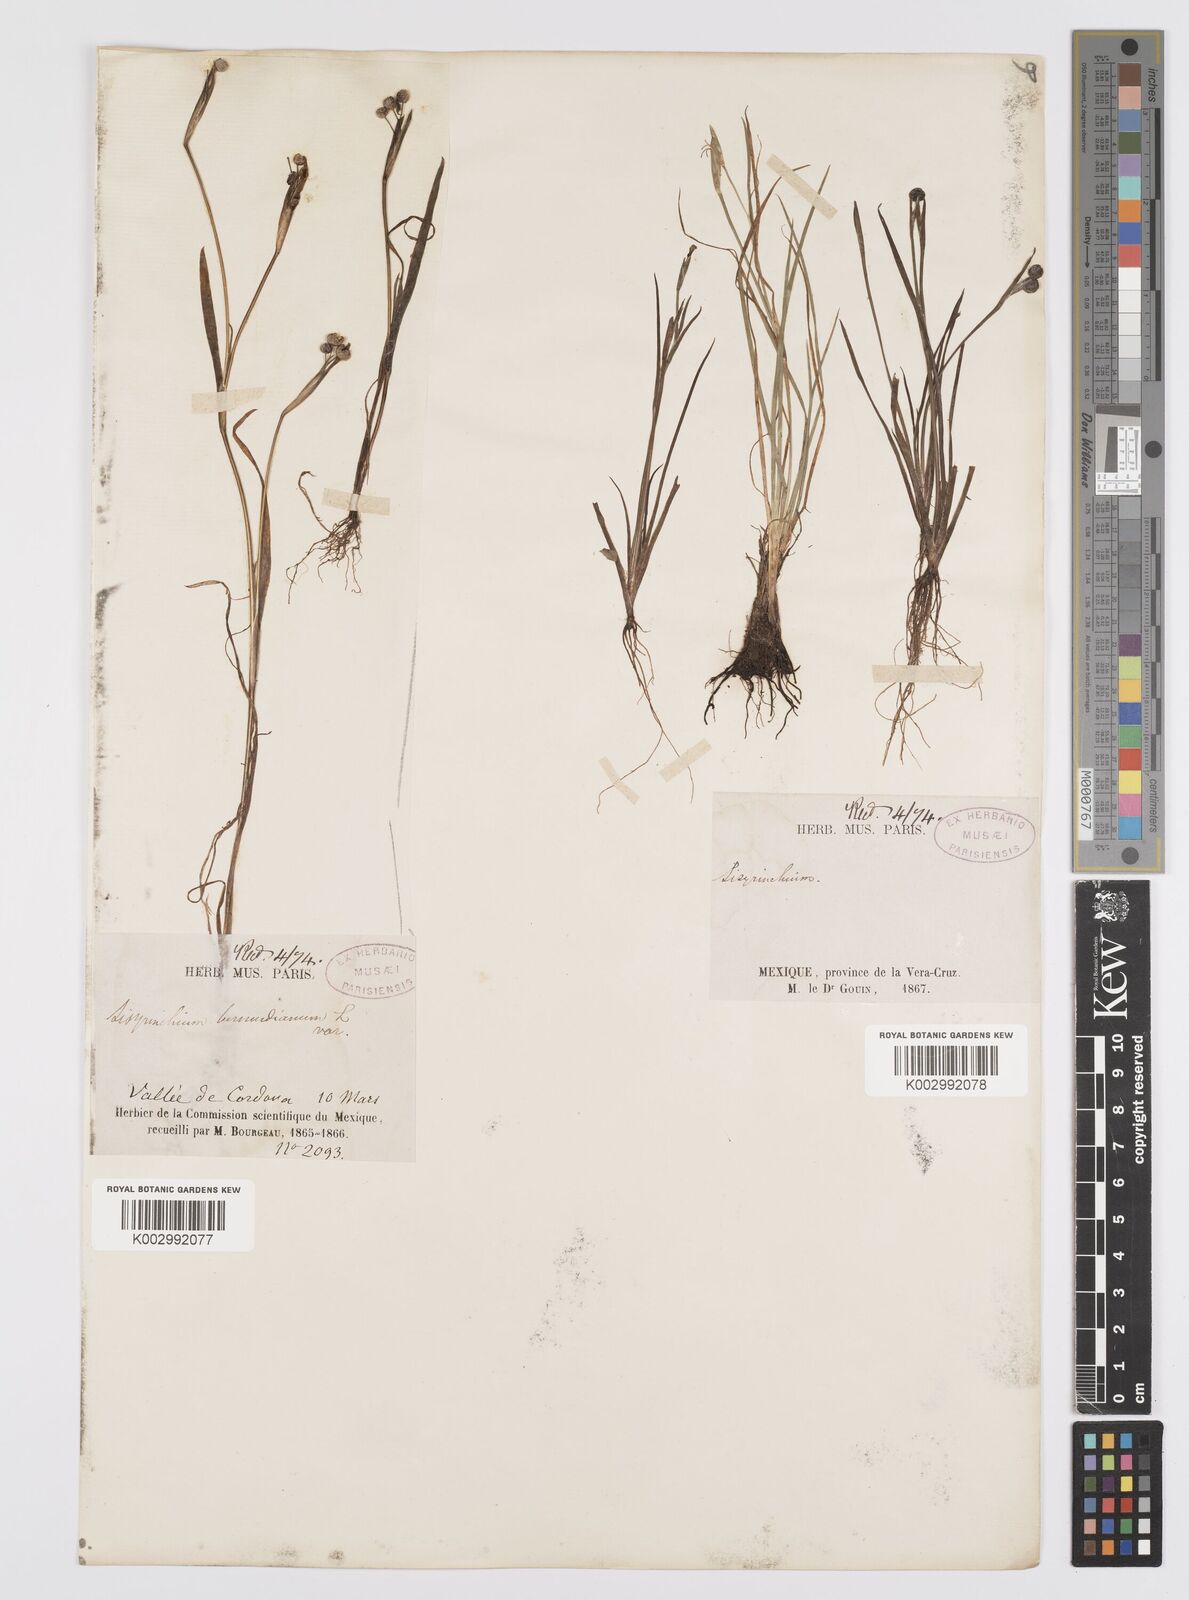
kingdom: Plantae
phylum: Tracheophyta
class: Liliopsida
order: Asparagales
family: Iridaceae
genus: Sisyrinchium
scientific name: Sisyrinchium bermudiana
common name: Blue-eyed-grass
